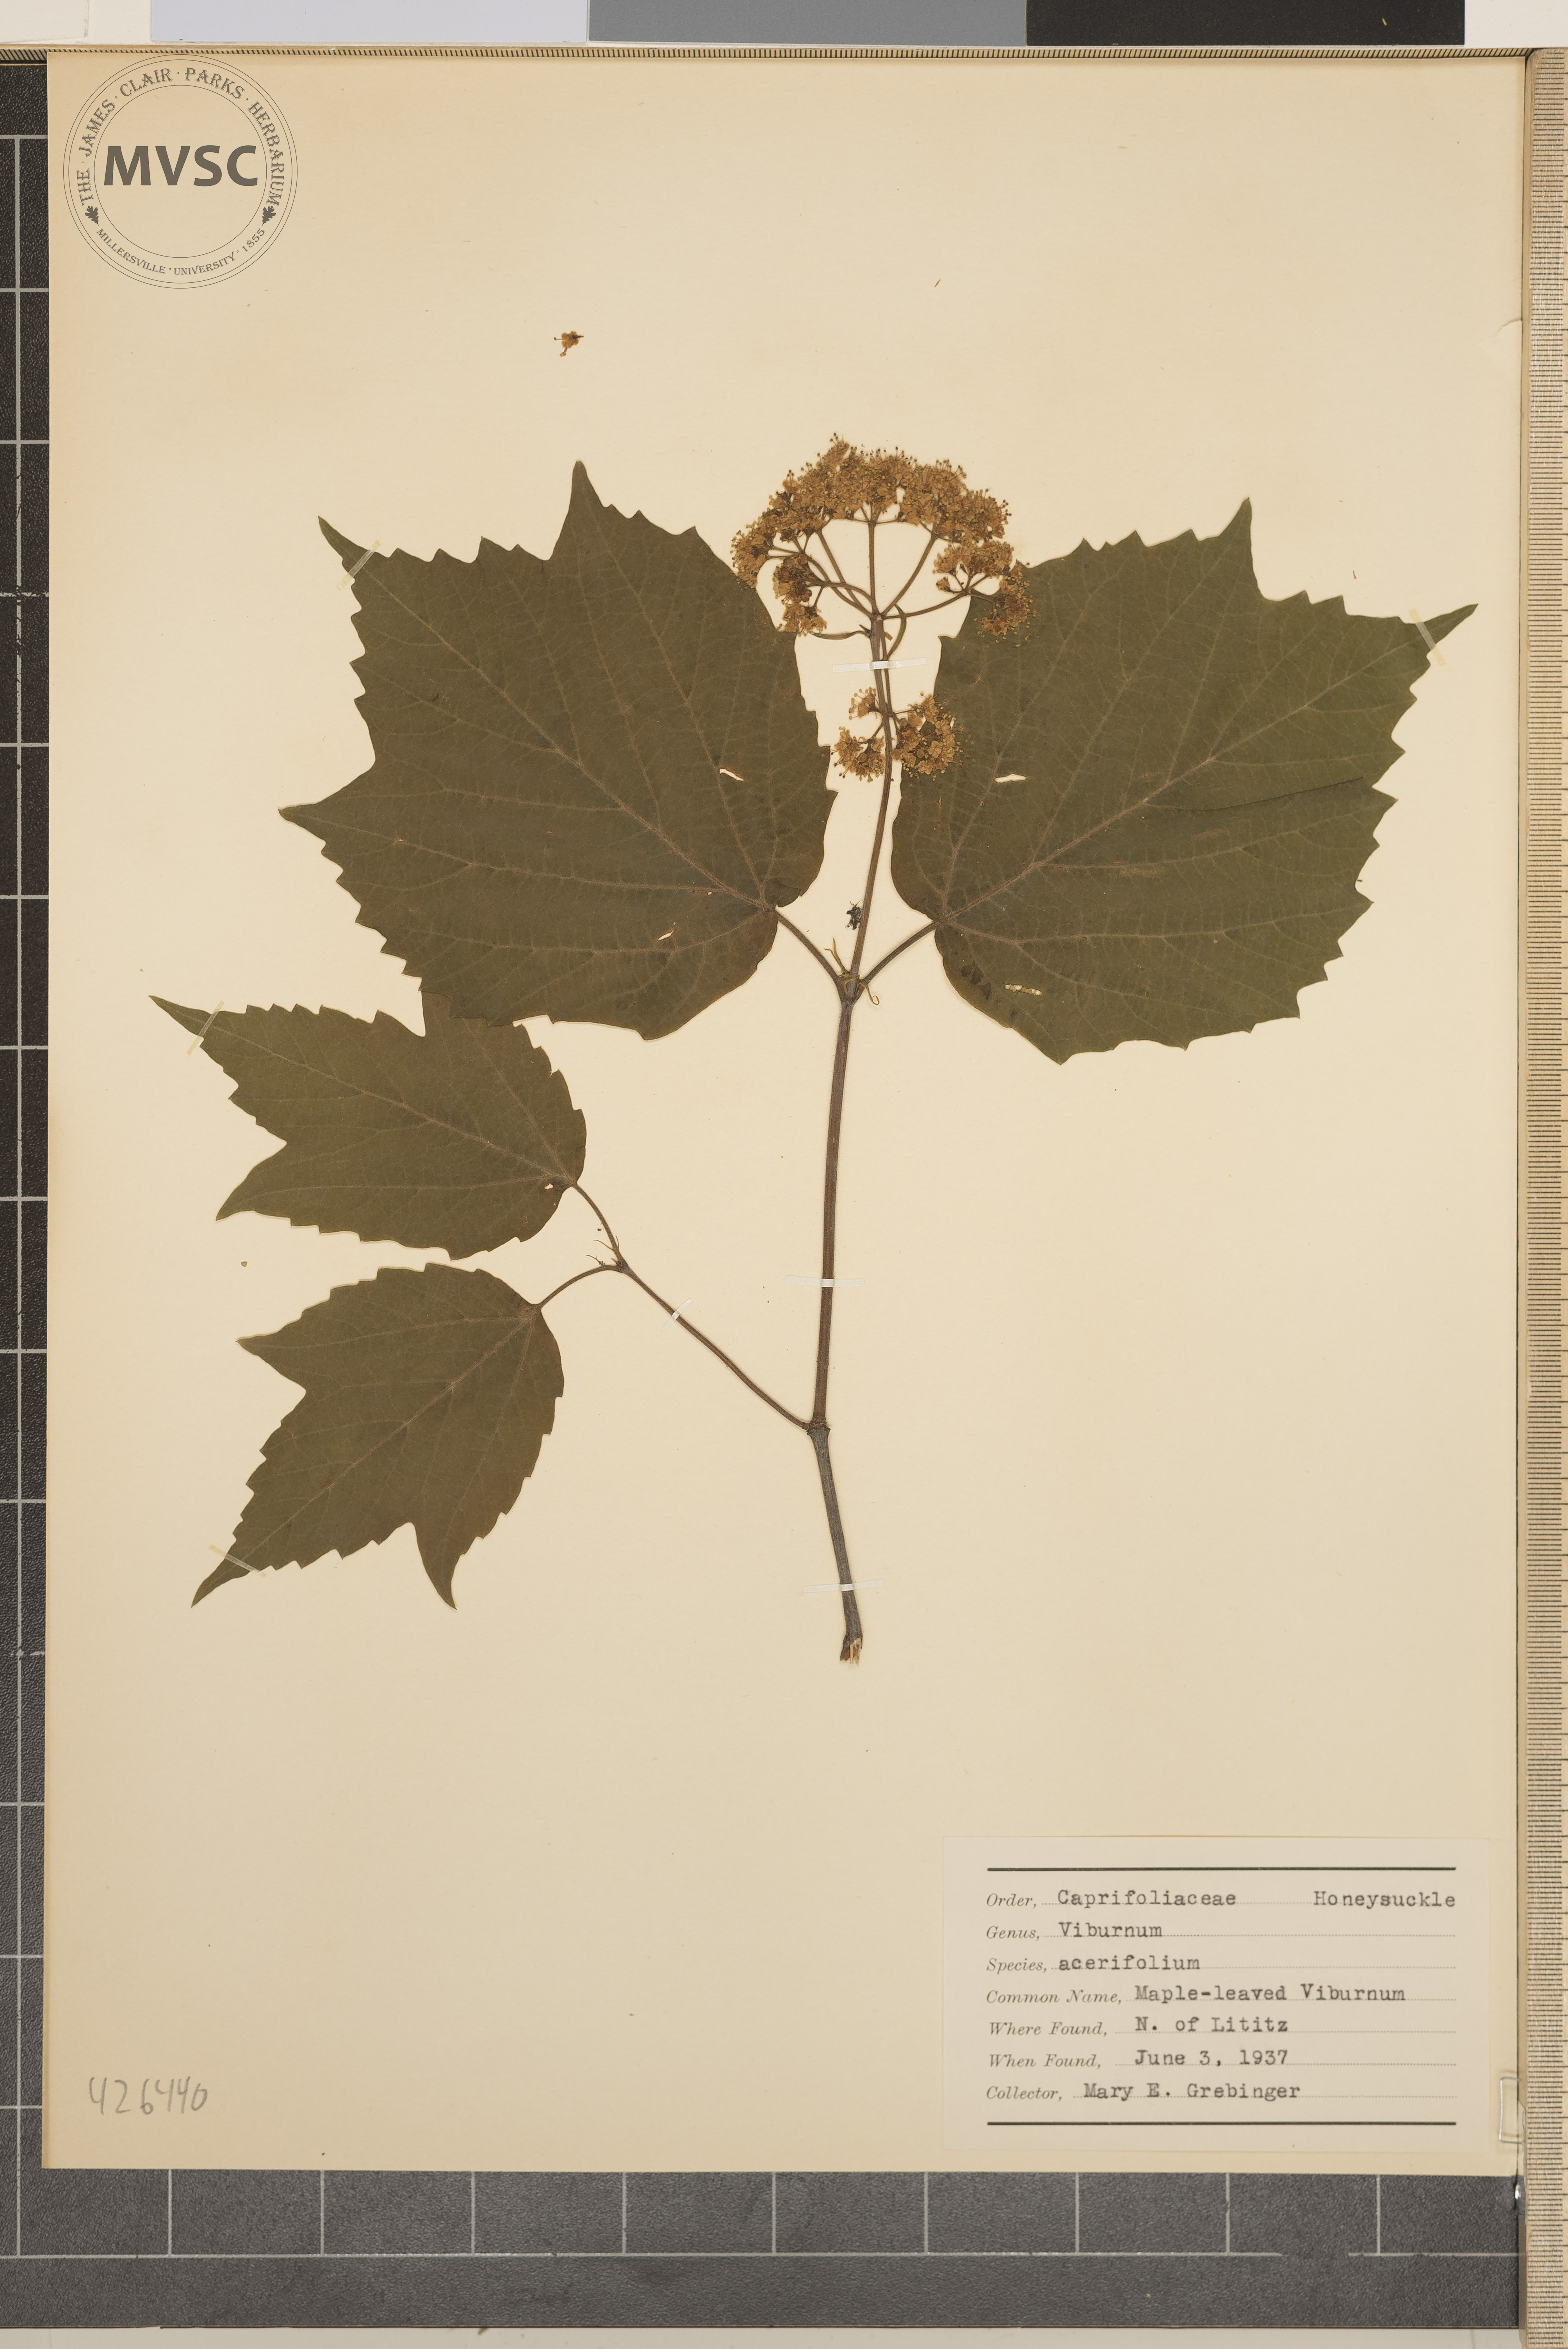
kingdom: Plantae
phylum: Tracheophyta
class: Magnoliopsida
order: Dipsacales
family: Viburnaceae
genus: Viburnum
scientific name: Viburnum acerifolium
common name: Maple-leaved viburnum
